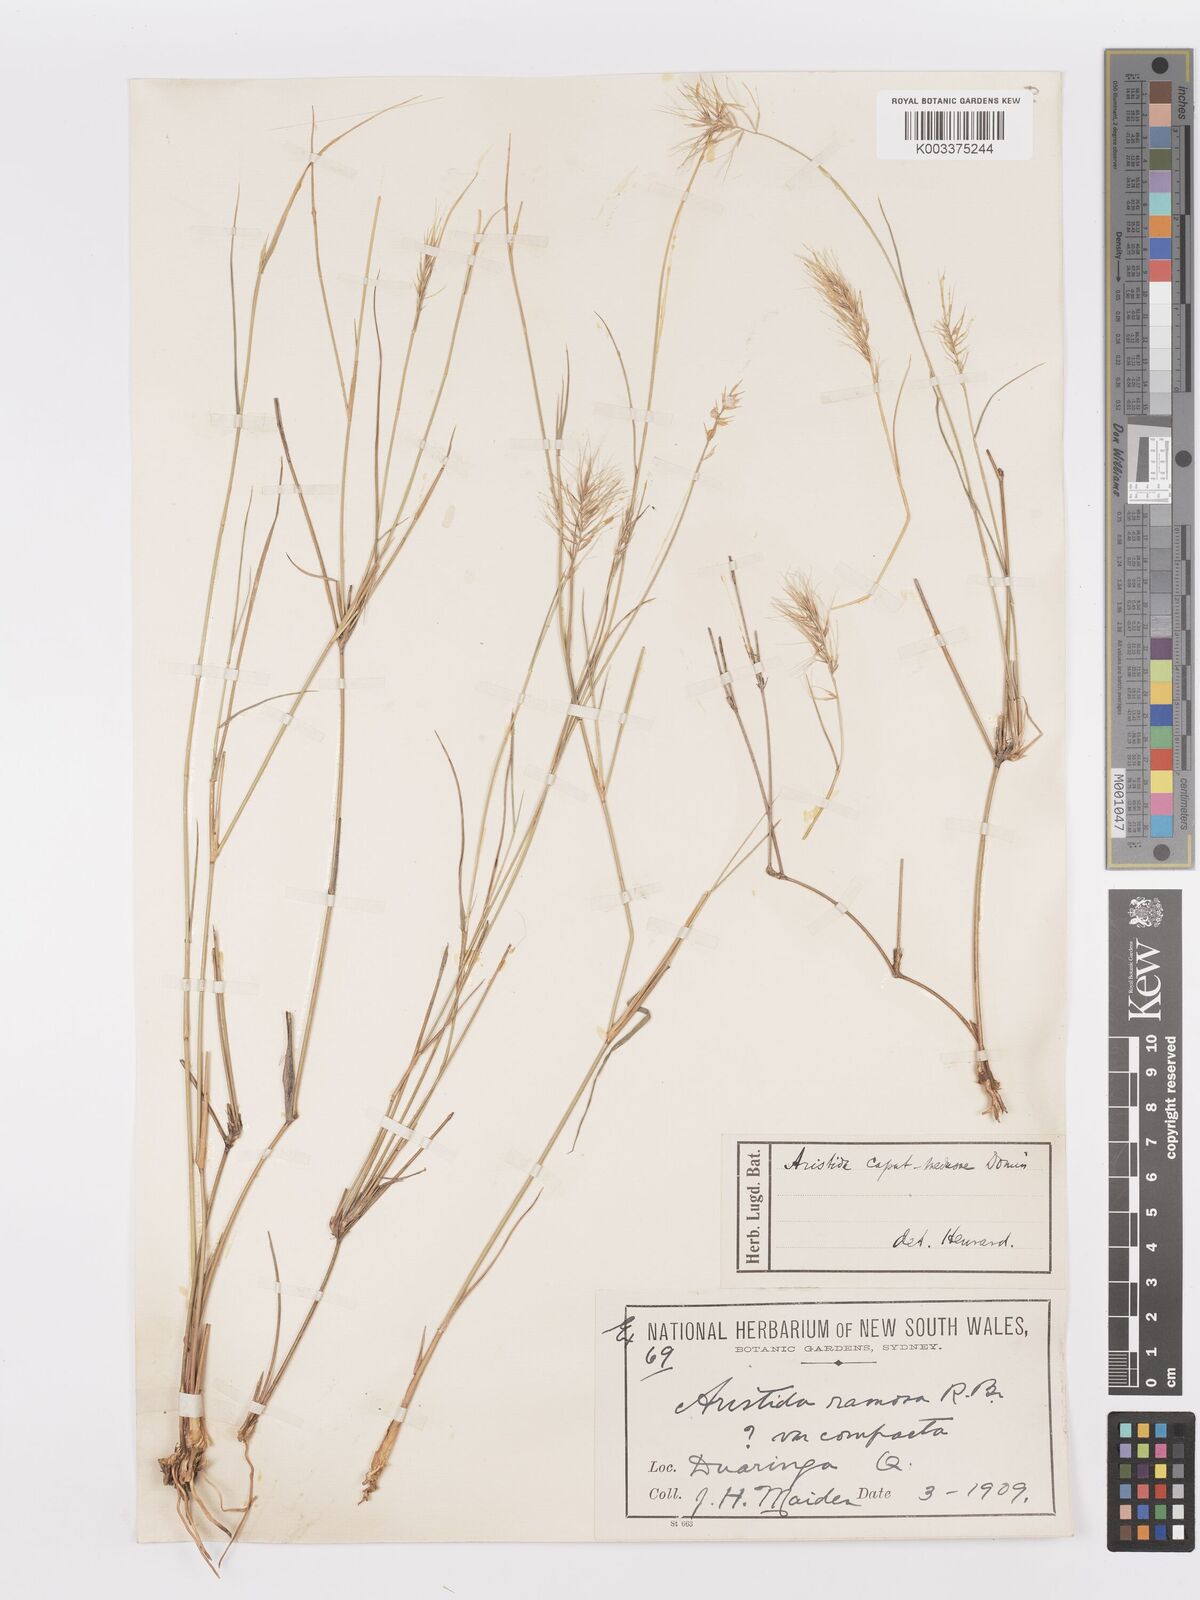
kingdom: Plantae
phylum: Tracheophyta
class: Liliopsida
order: Poales
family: Poaceae
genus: Aristida
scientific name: Aristida caput-medusae
